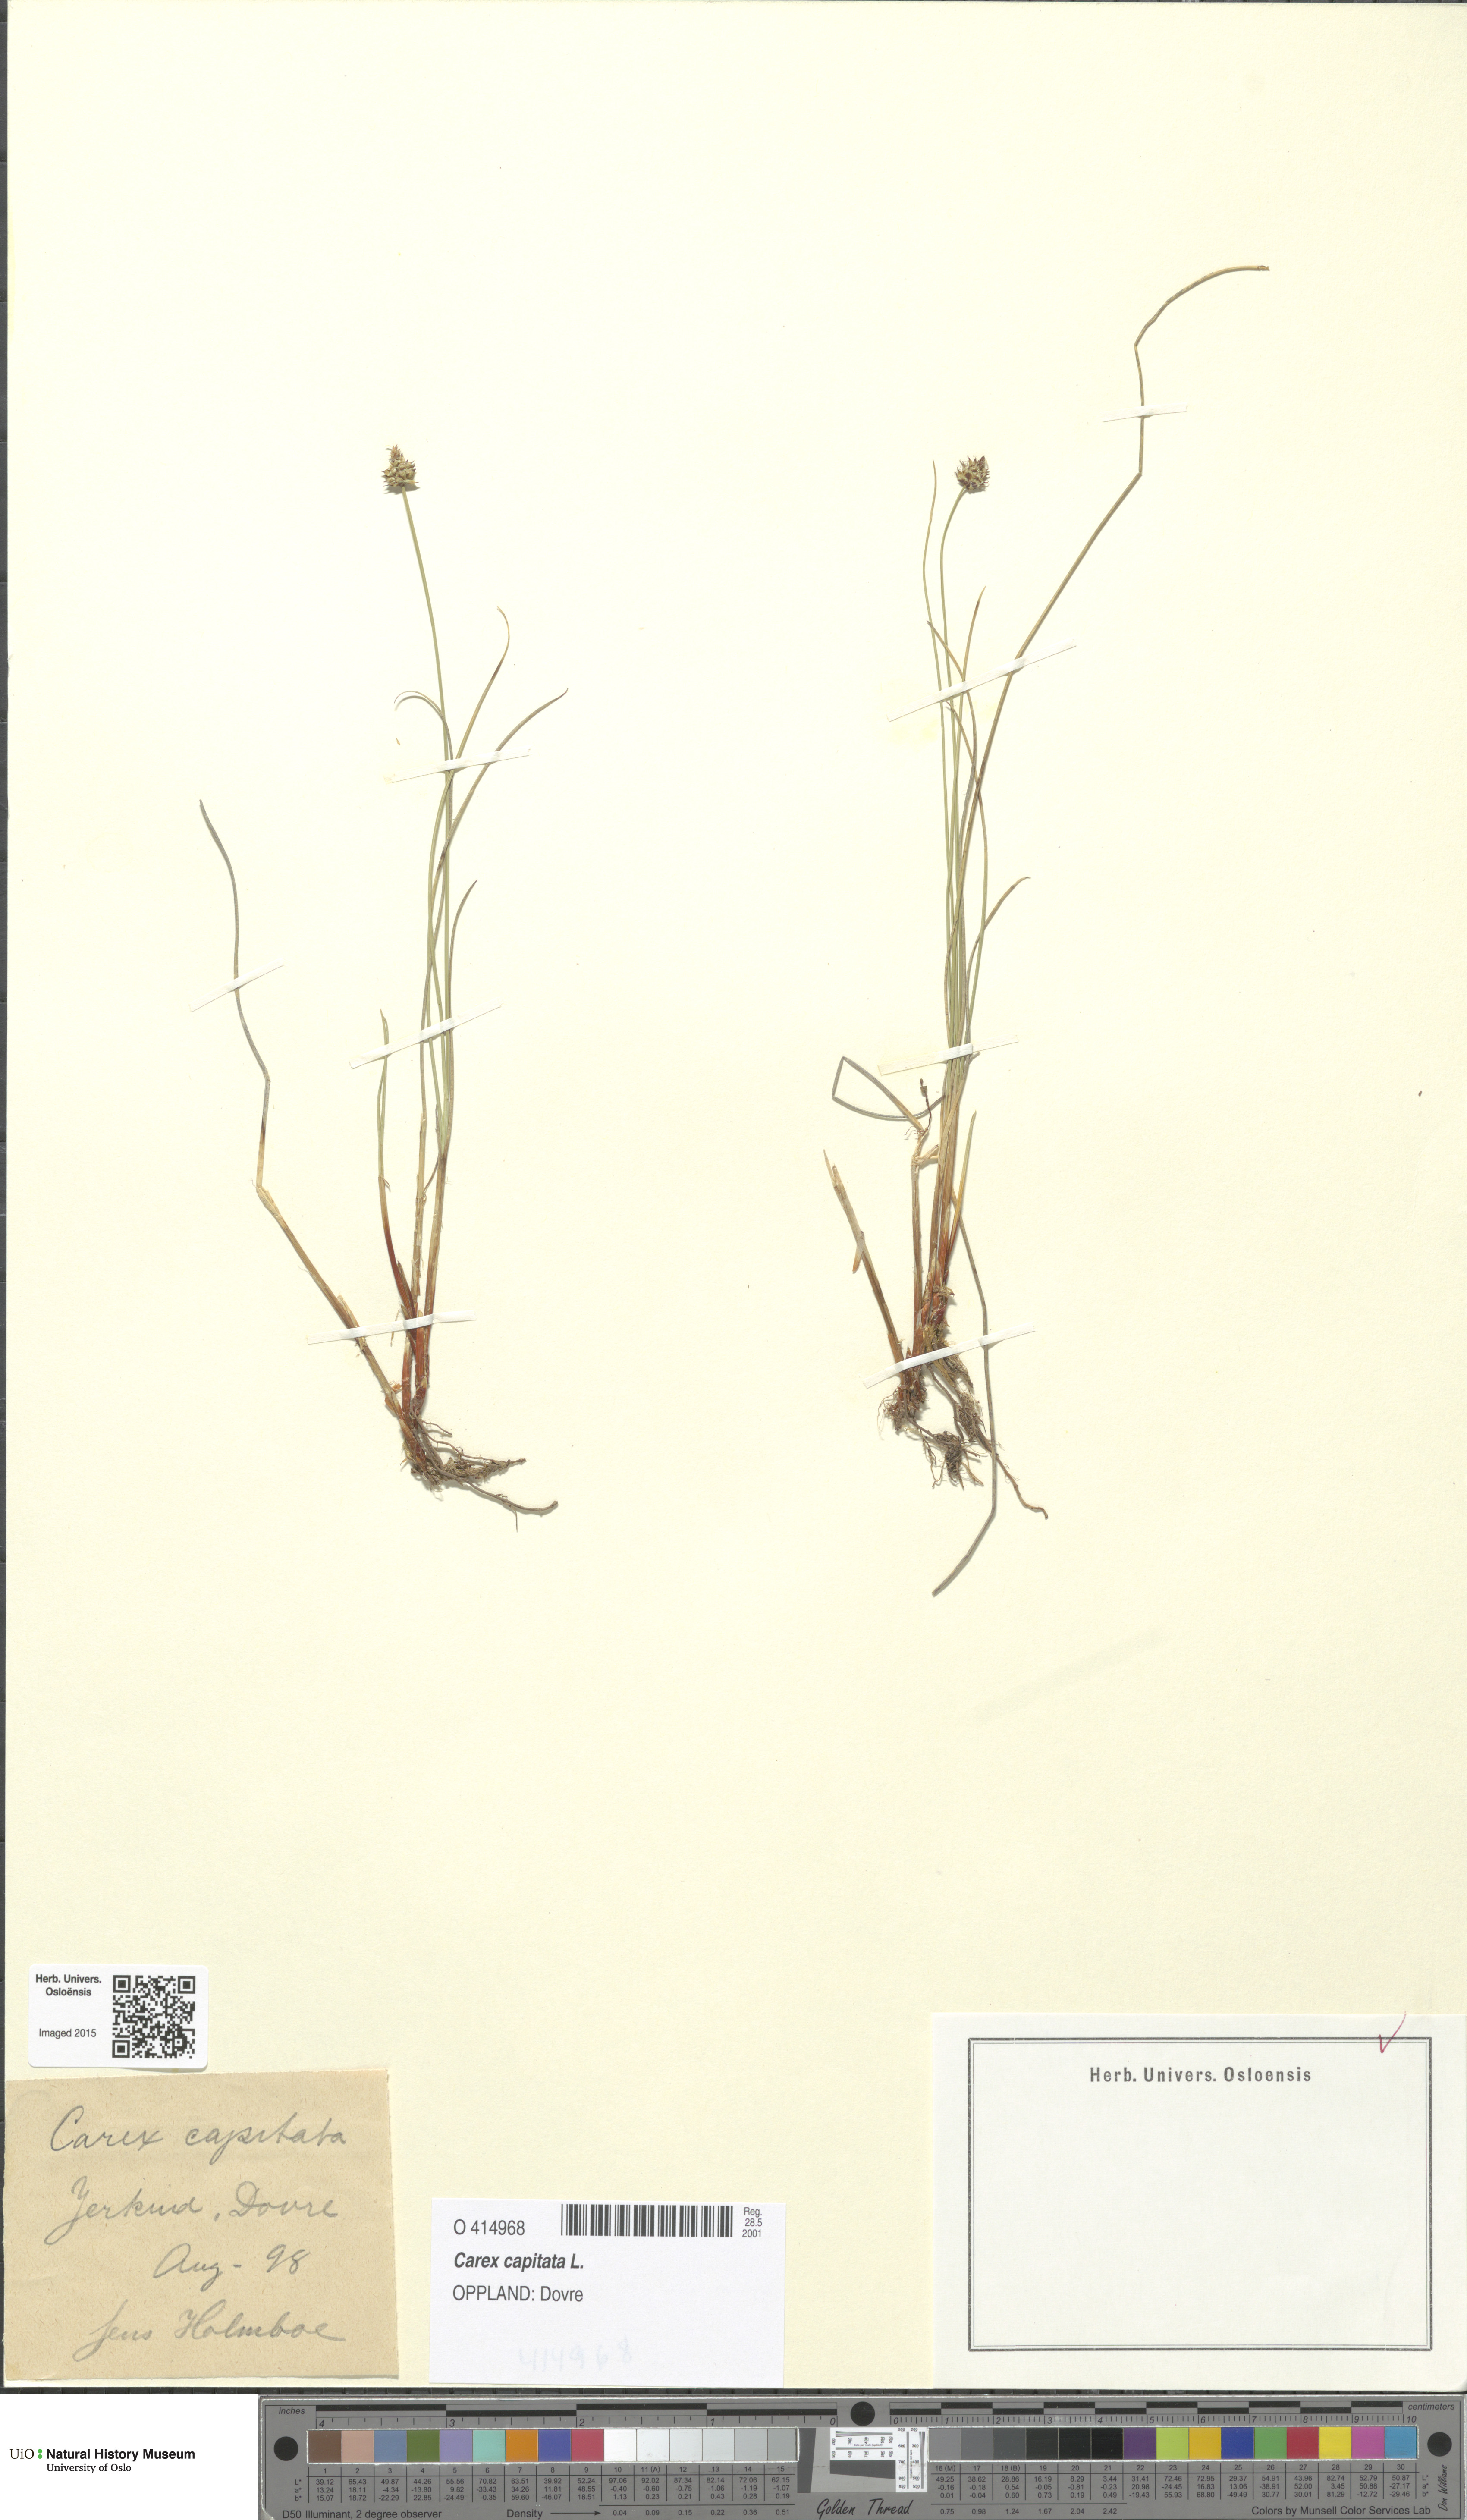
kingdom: Plantae
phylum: Tracheophyta
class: Liliopsida
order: Poales
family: Cyperaceae
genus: Carex
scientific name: Carex capitata
